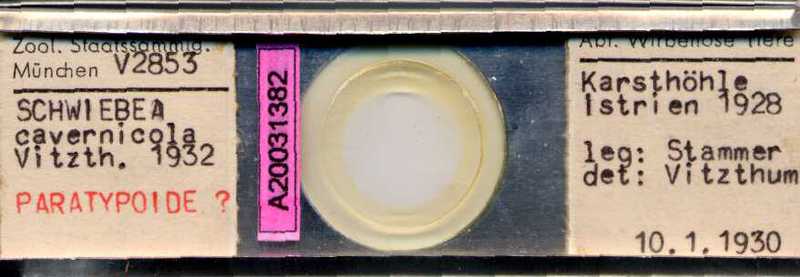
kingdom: Animalia
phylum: Arthropoda
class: Arachnida
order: Sarcoptiformes
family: Acaridae
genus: Schwiebea
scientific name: Schwiebea cavernicola
